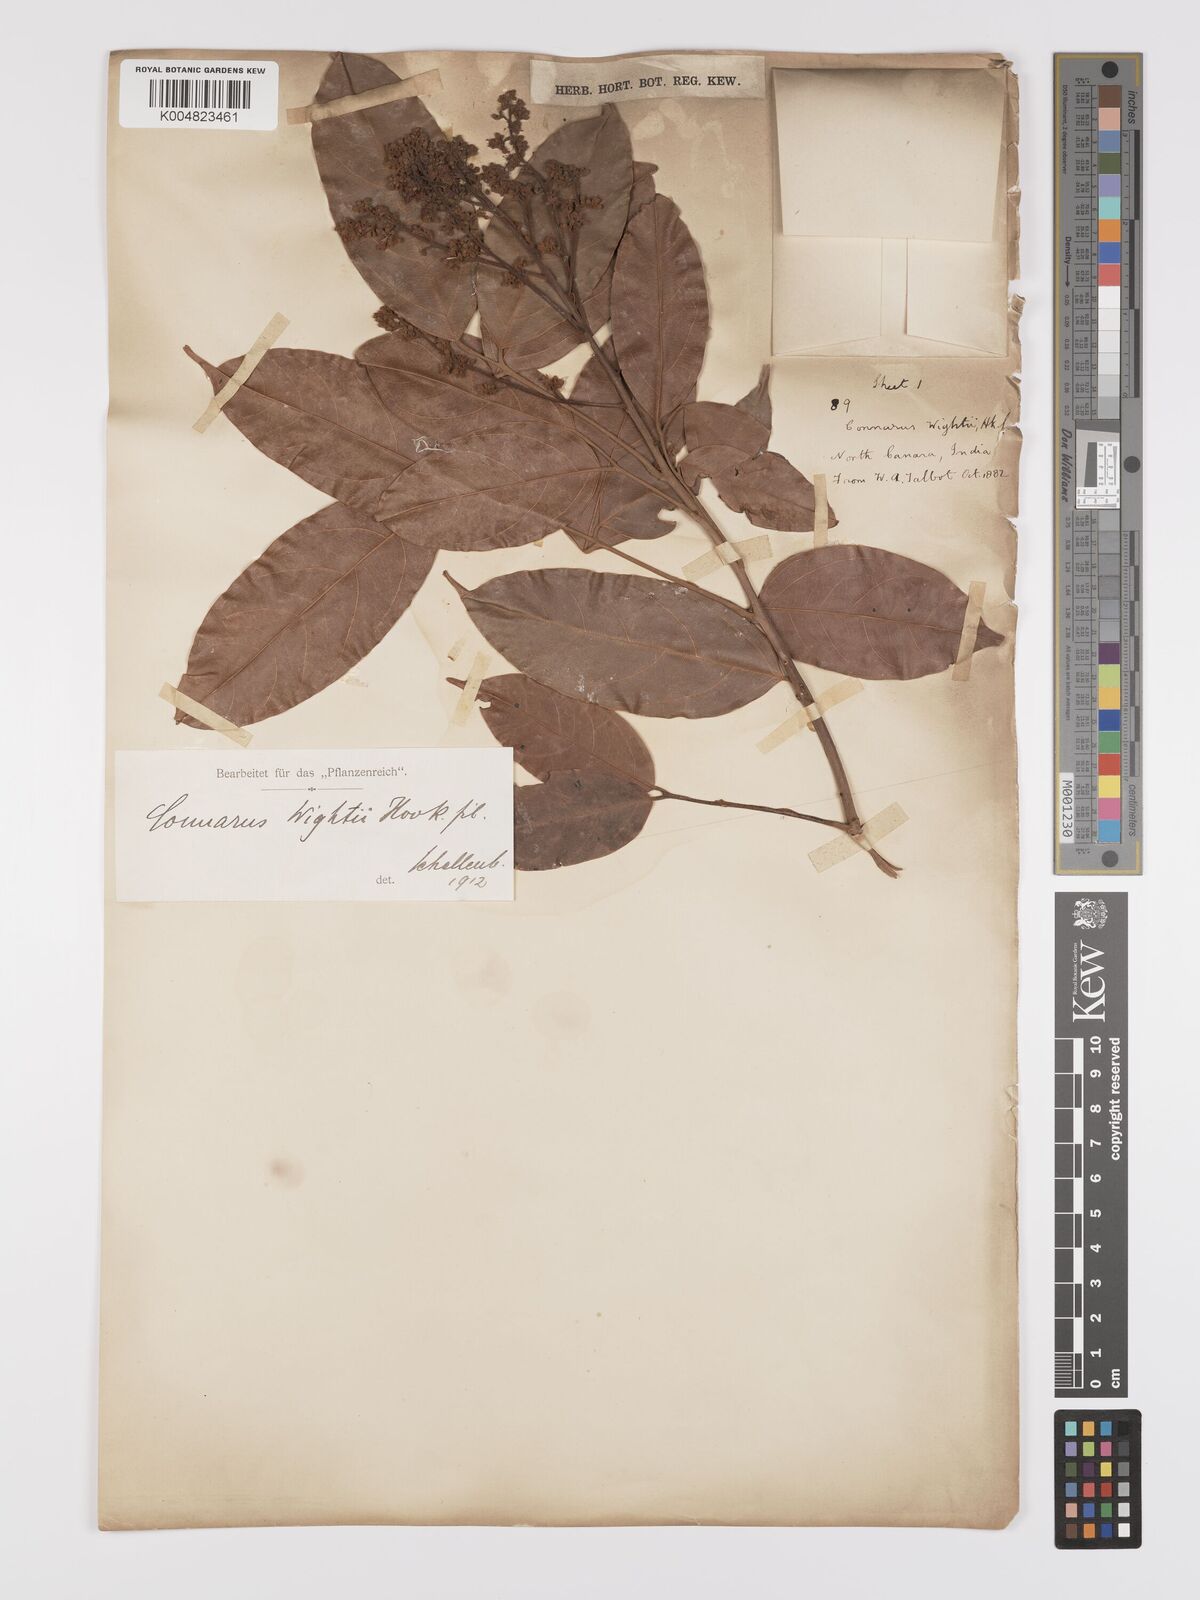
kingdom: Plantae
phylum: Tracheophyta
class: Magnoliopsida
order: Oxalidales
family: Connaraceae
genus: Connarus
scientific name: Connarus wightii
